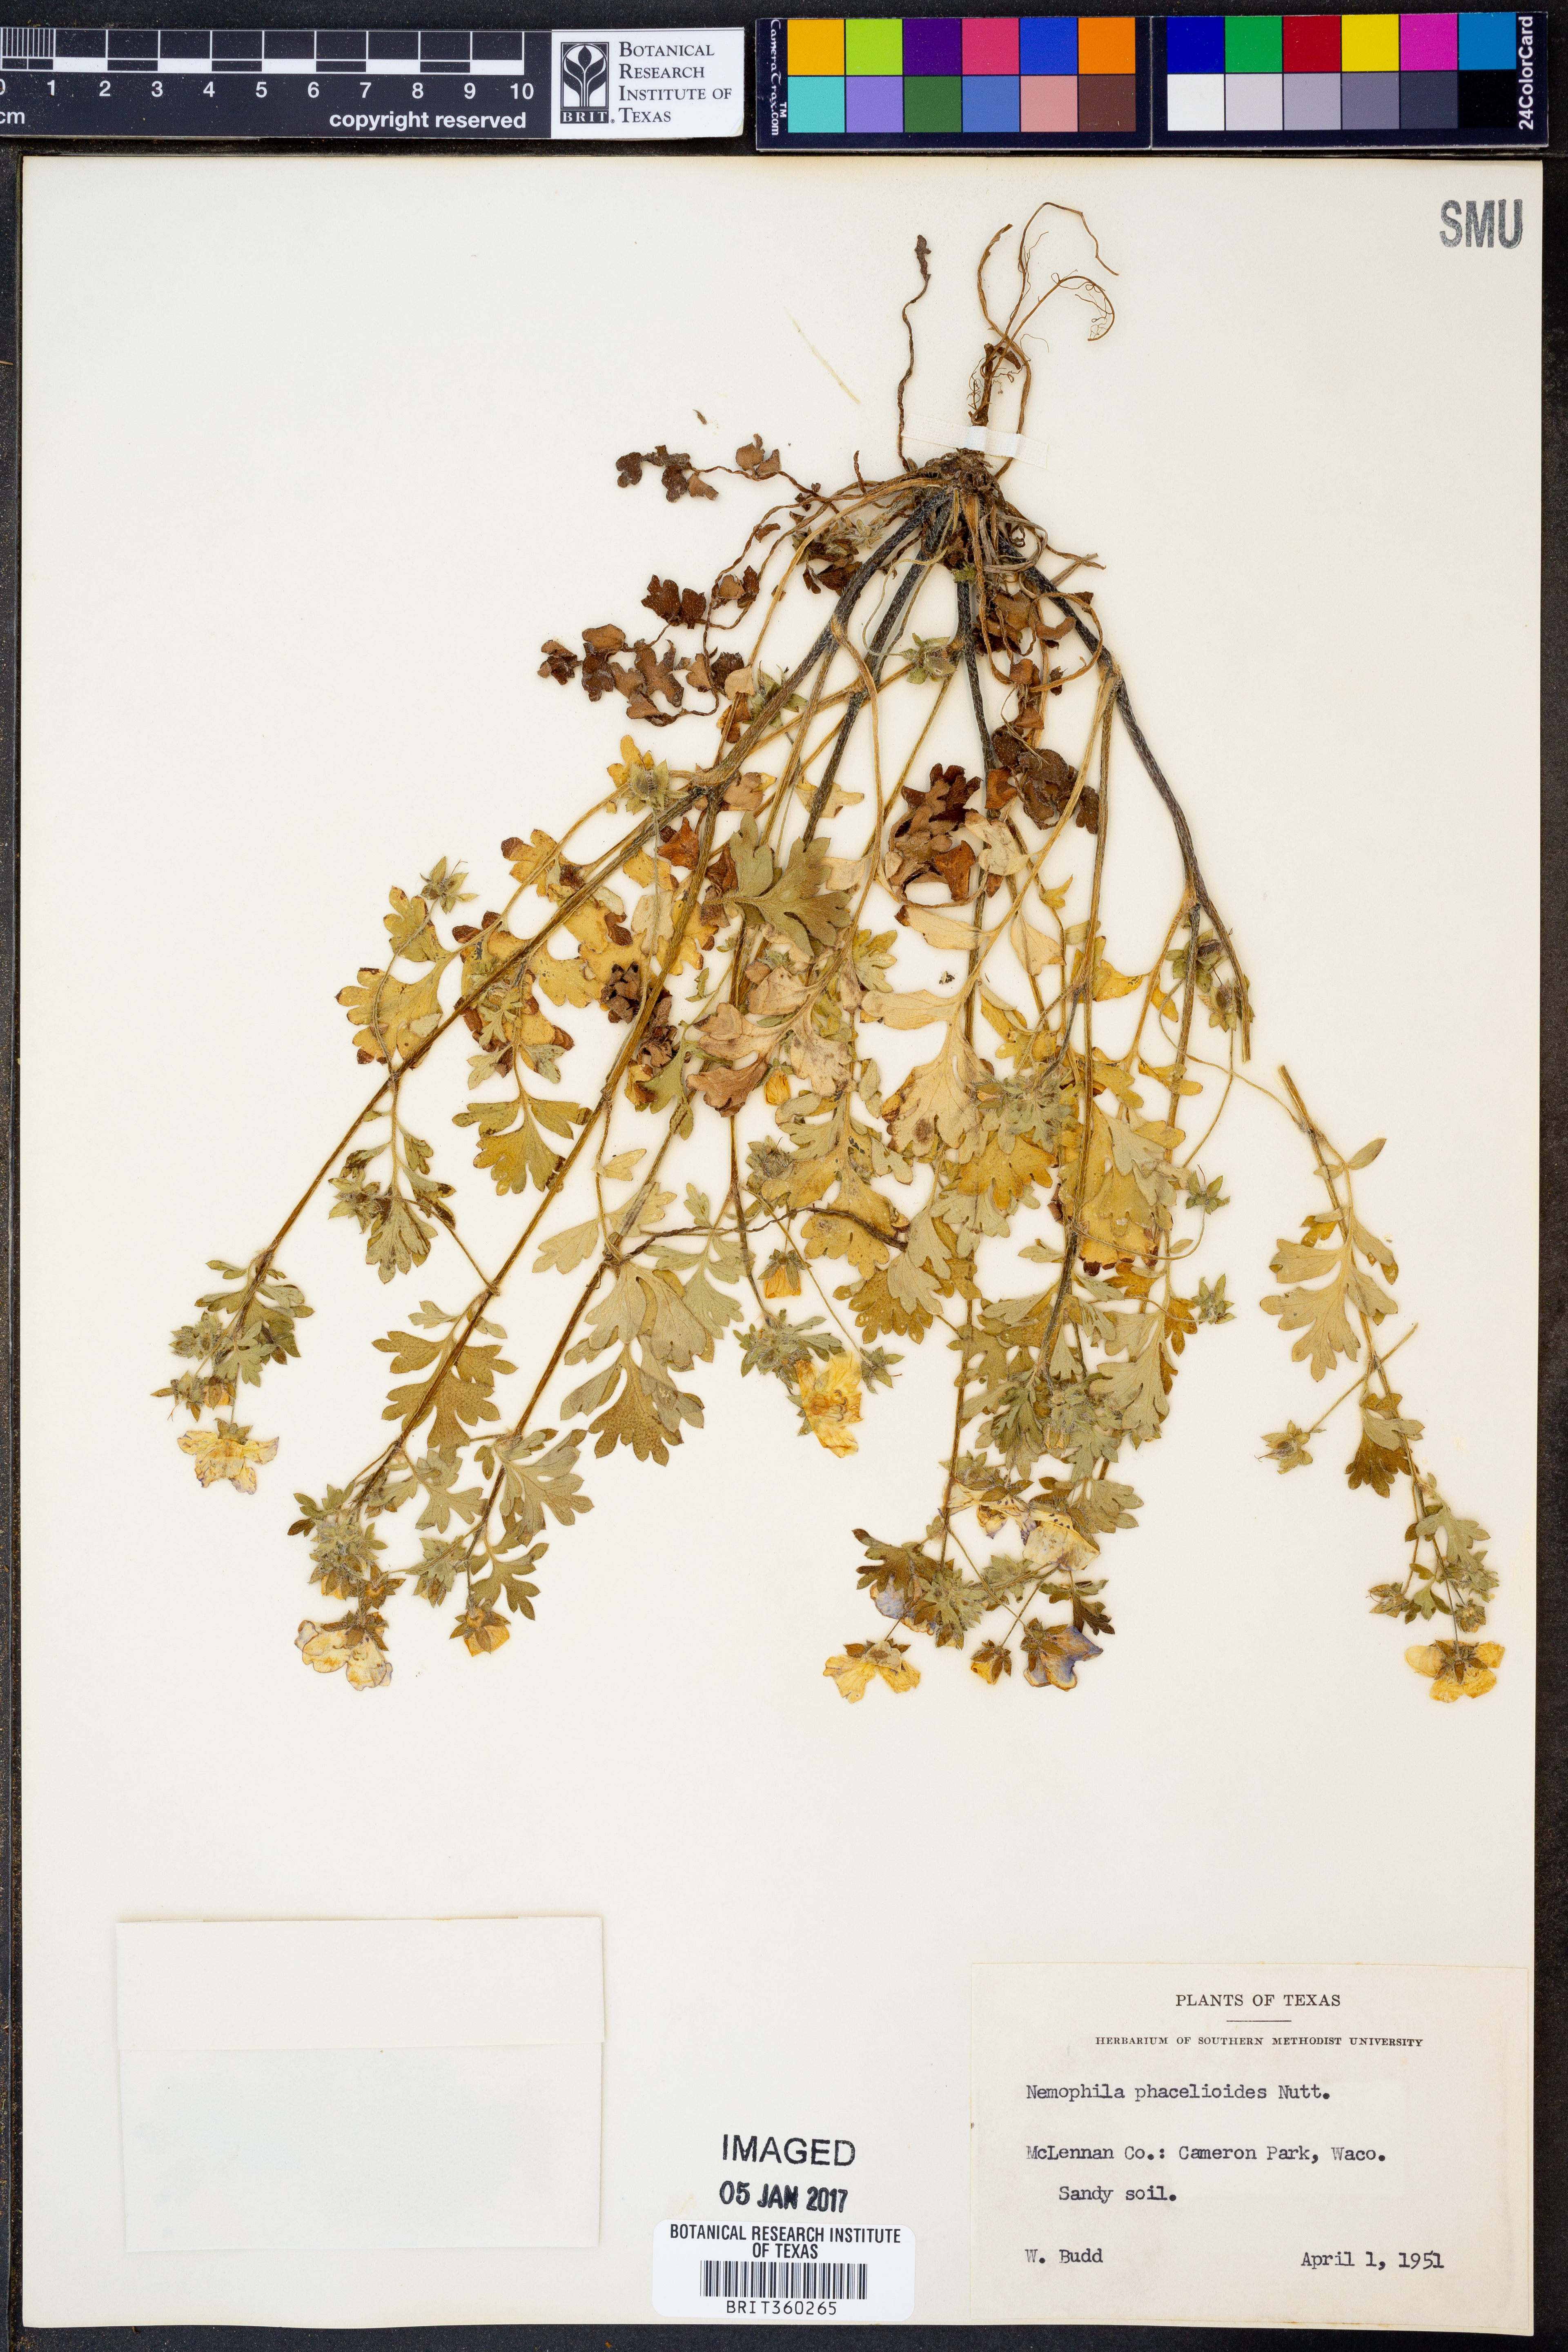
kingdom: Plantae
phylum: Tracheophyta
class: Magnoliopsida
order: Boraginales
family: Hydrophyllaceae
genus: Nemophila
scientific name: Nemophila phacelioides
